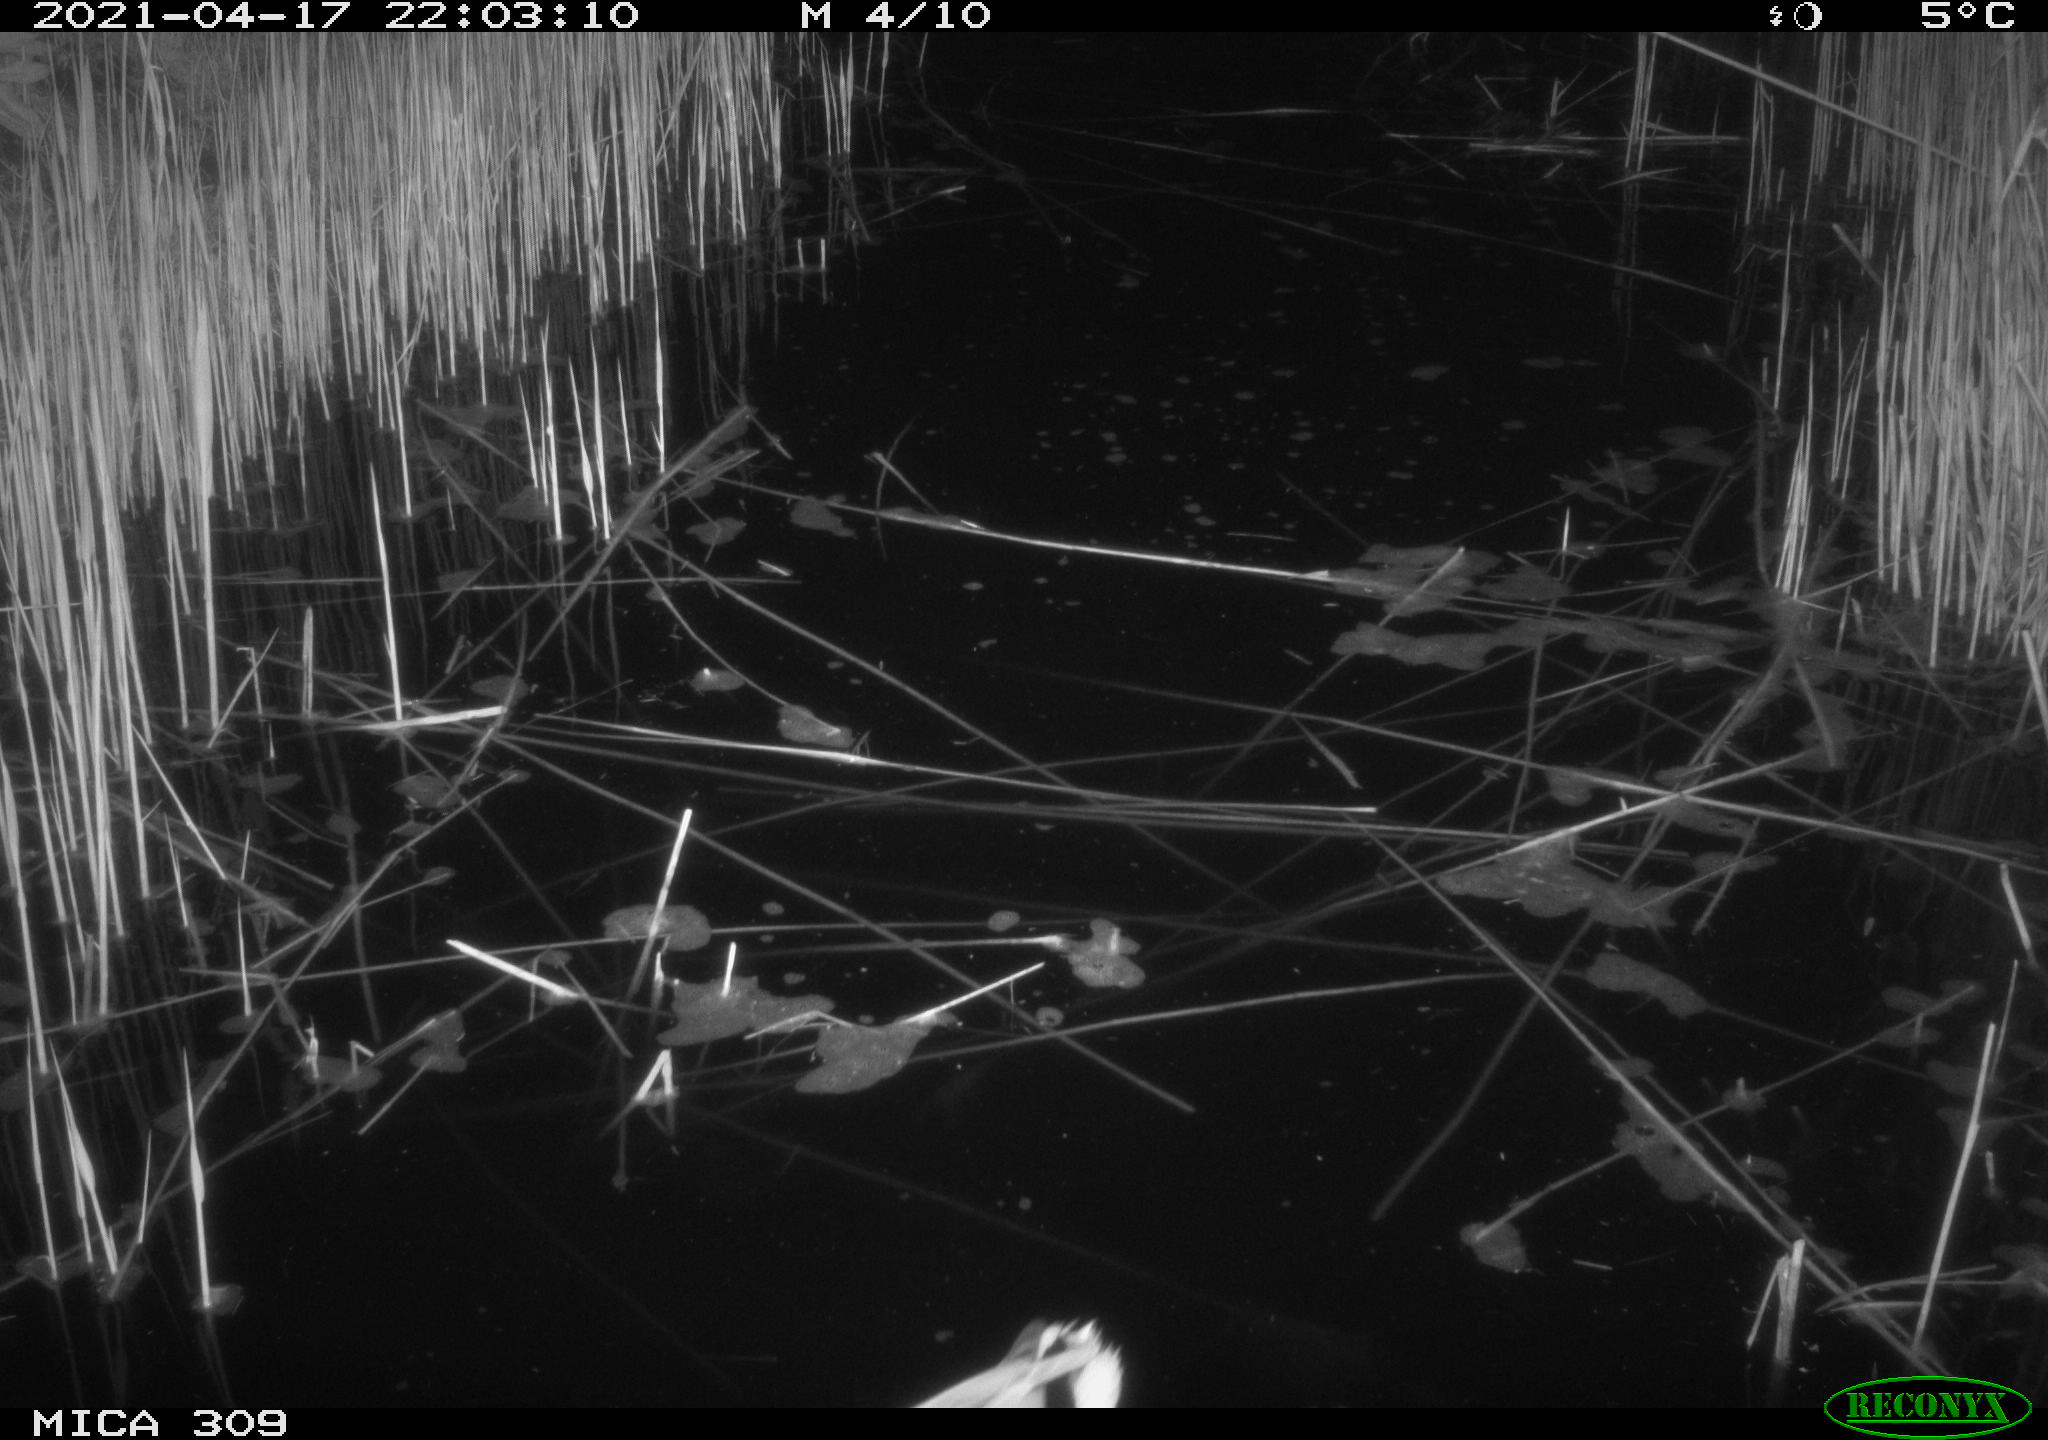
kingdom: Animalia
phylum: Chordata
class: Aves
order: Anseriformes
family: Anatidae
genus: Anas
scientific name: Anas platyrhynchos
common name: Mallard
